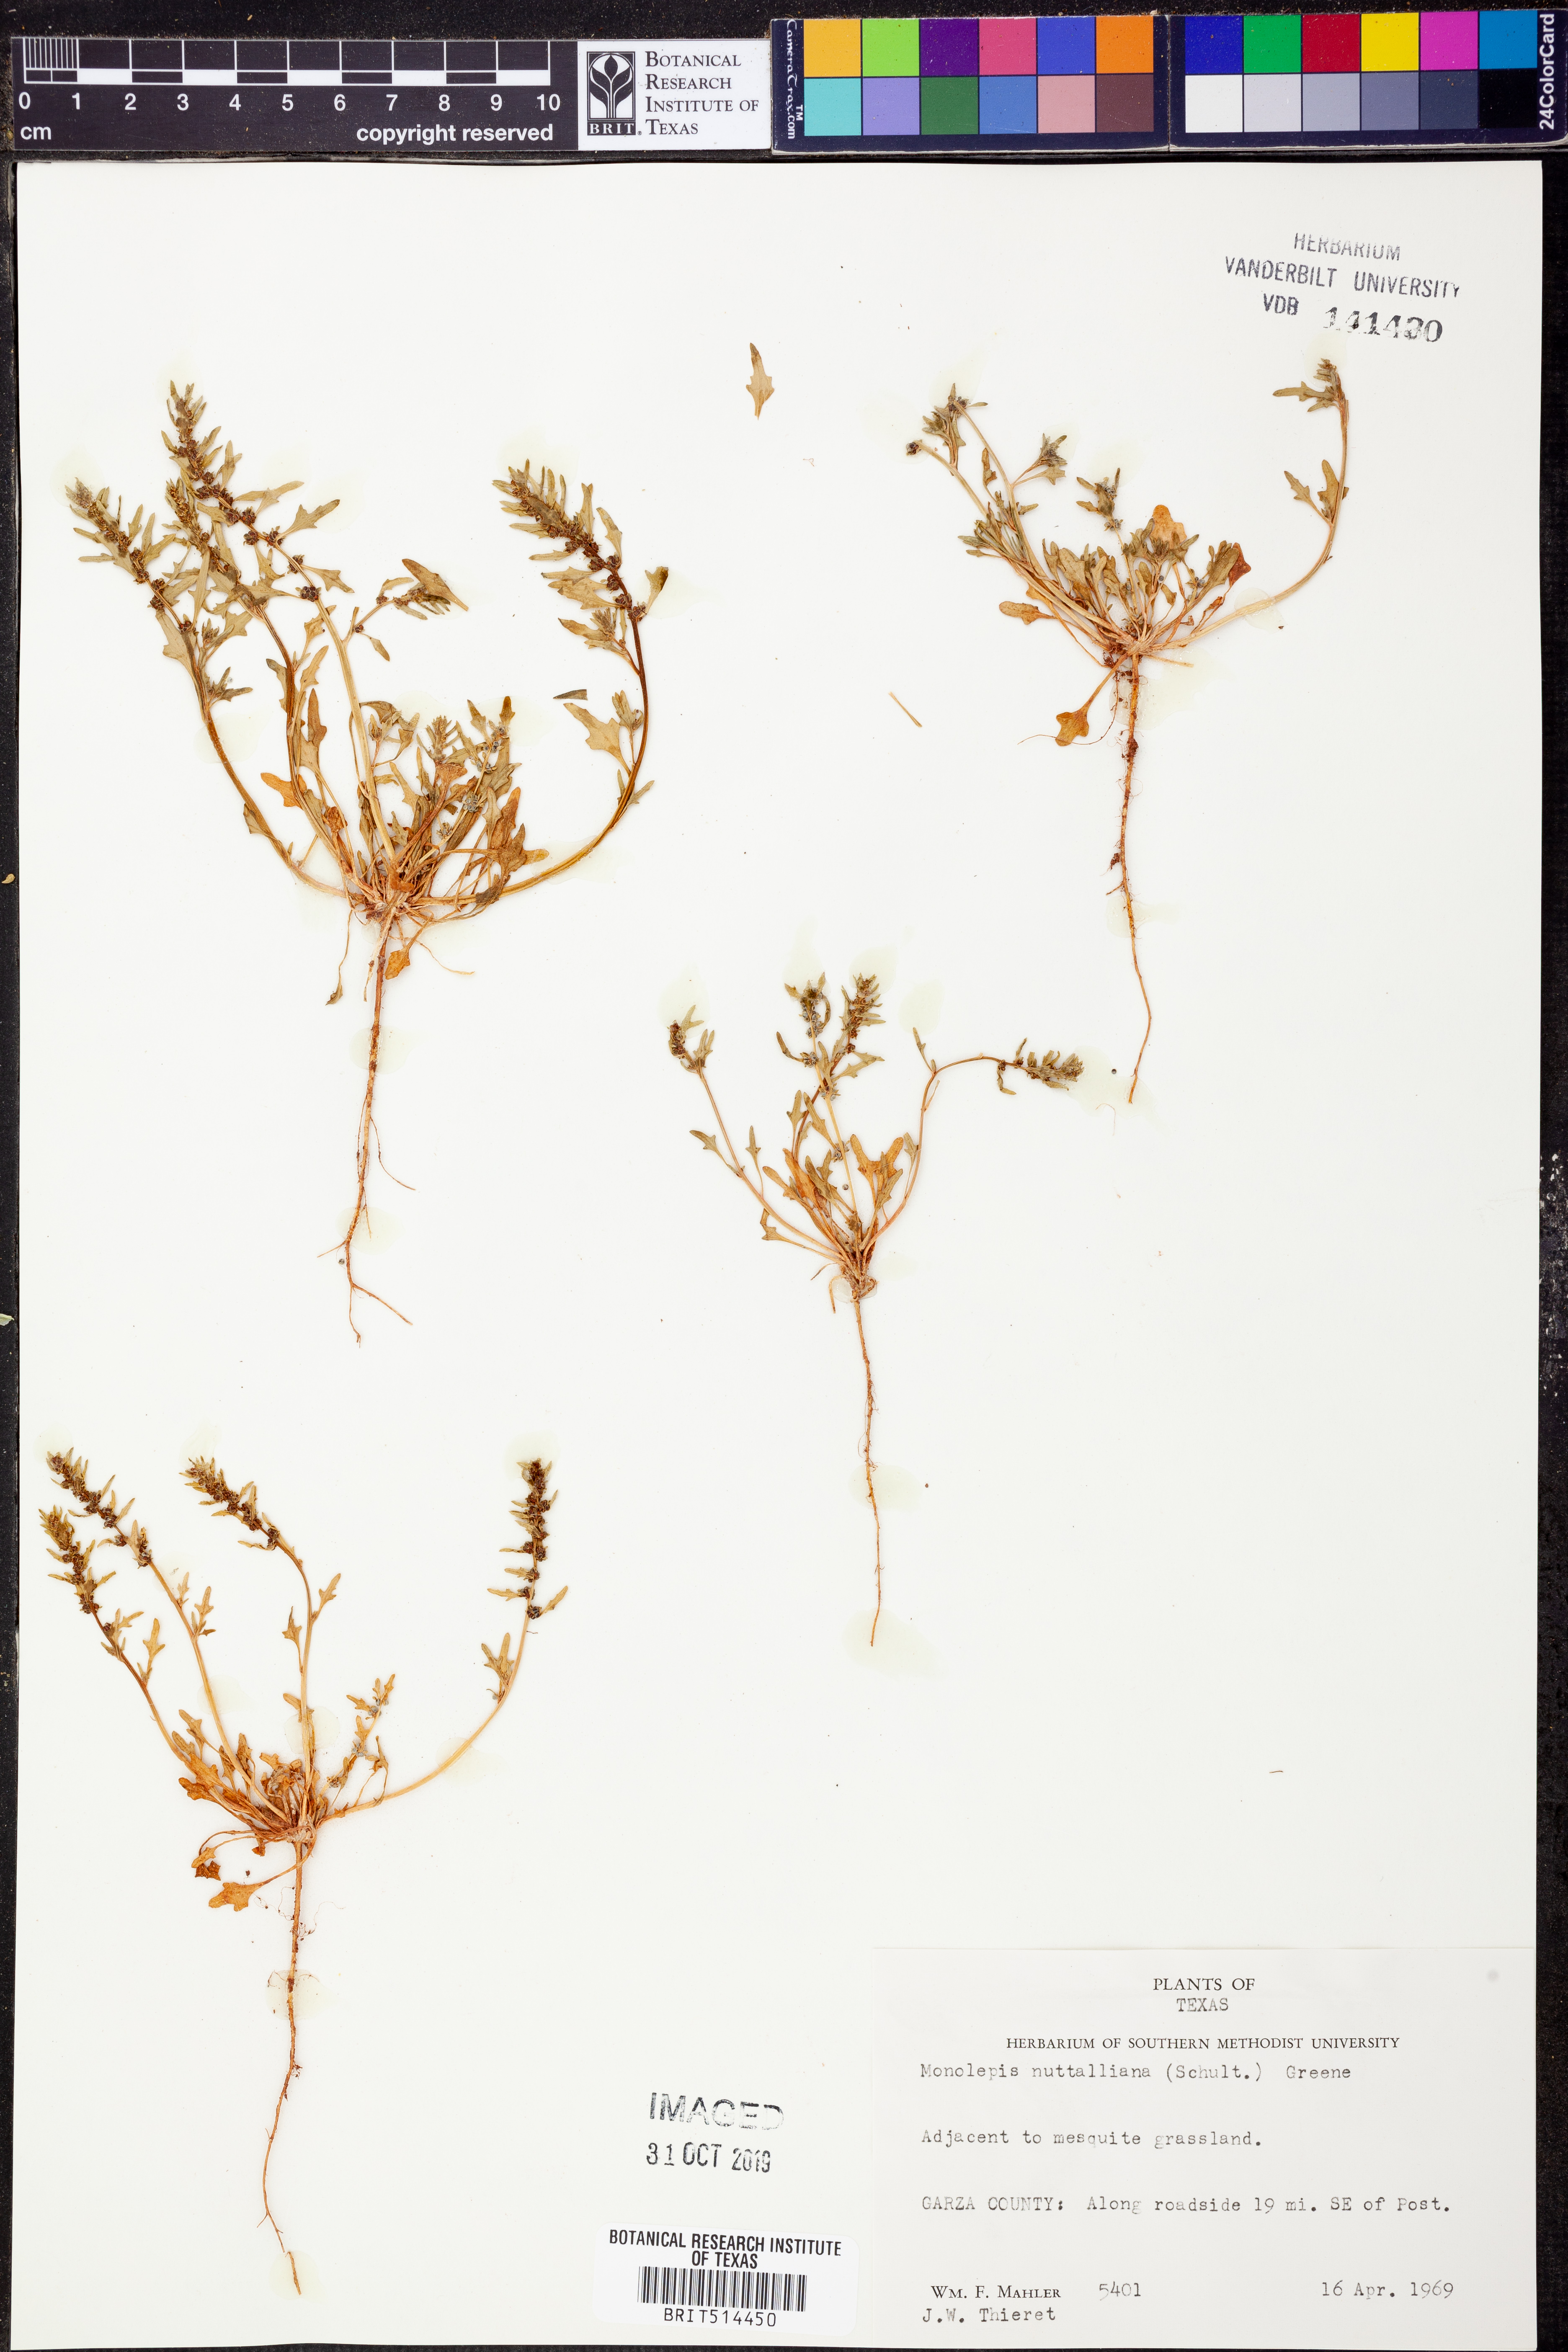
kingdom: Plantae
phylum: Tracheophyta
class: Magnoliopsida
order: Caryophyllales
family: Amaranthaceae
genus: Blitum
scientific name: Blitum nuttallianum
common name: Poverty-weed
